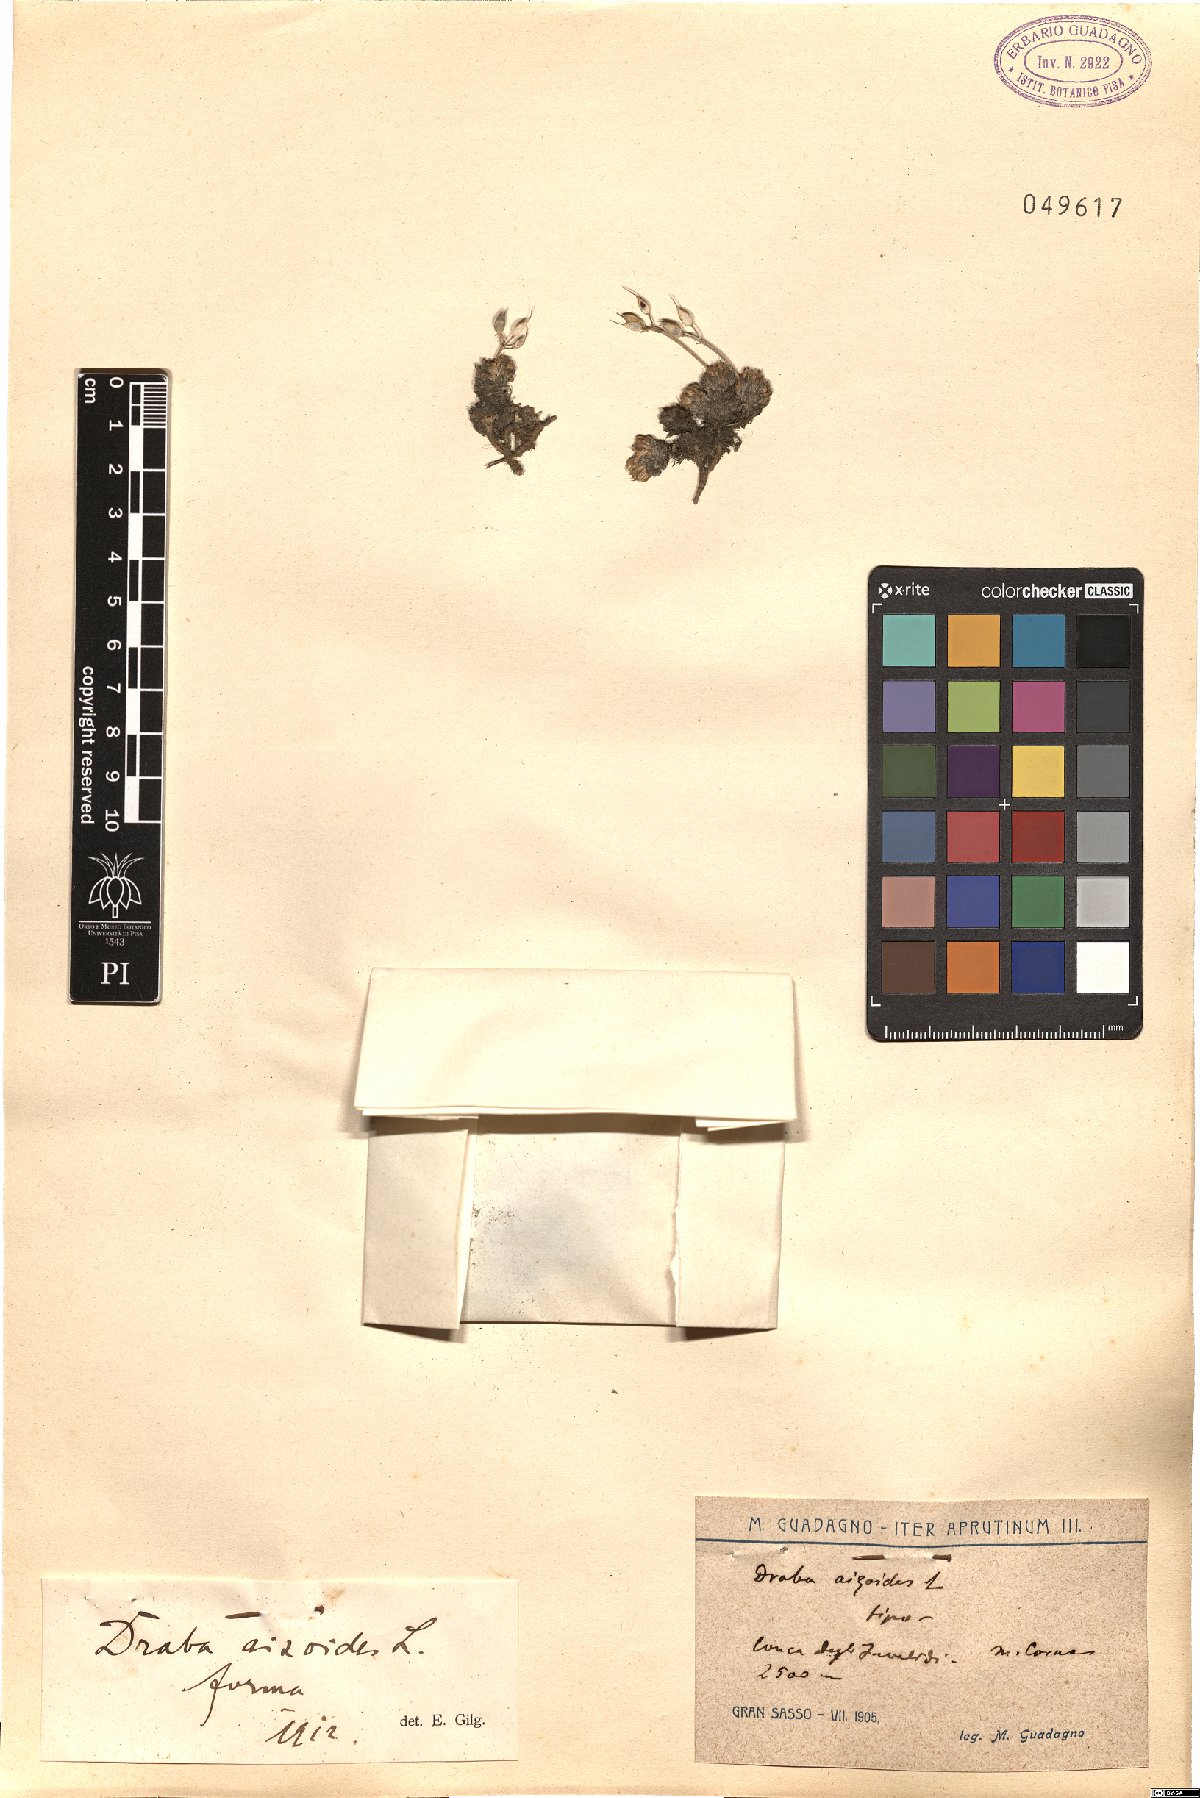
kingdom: Plantae
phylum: Tracheophyta
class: Magnoliopsida
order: Brassicales
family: Brassicaceae
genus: Draba
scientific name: Draba aizoides
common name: Yellow whitlowgrass
